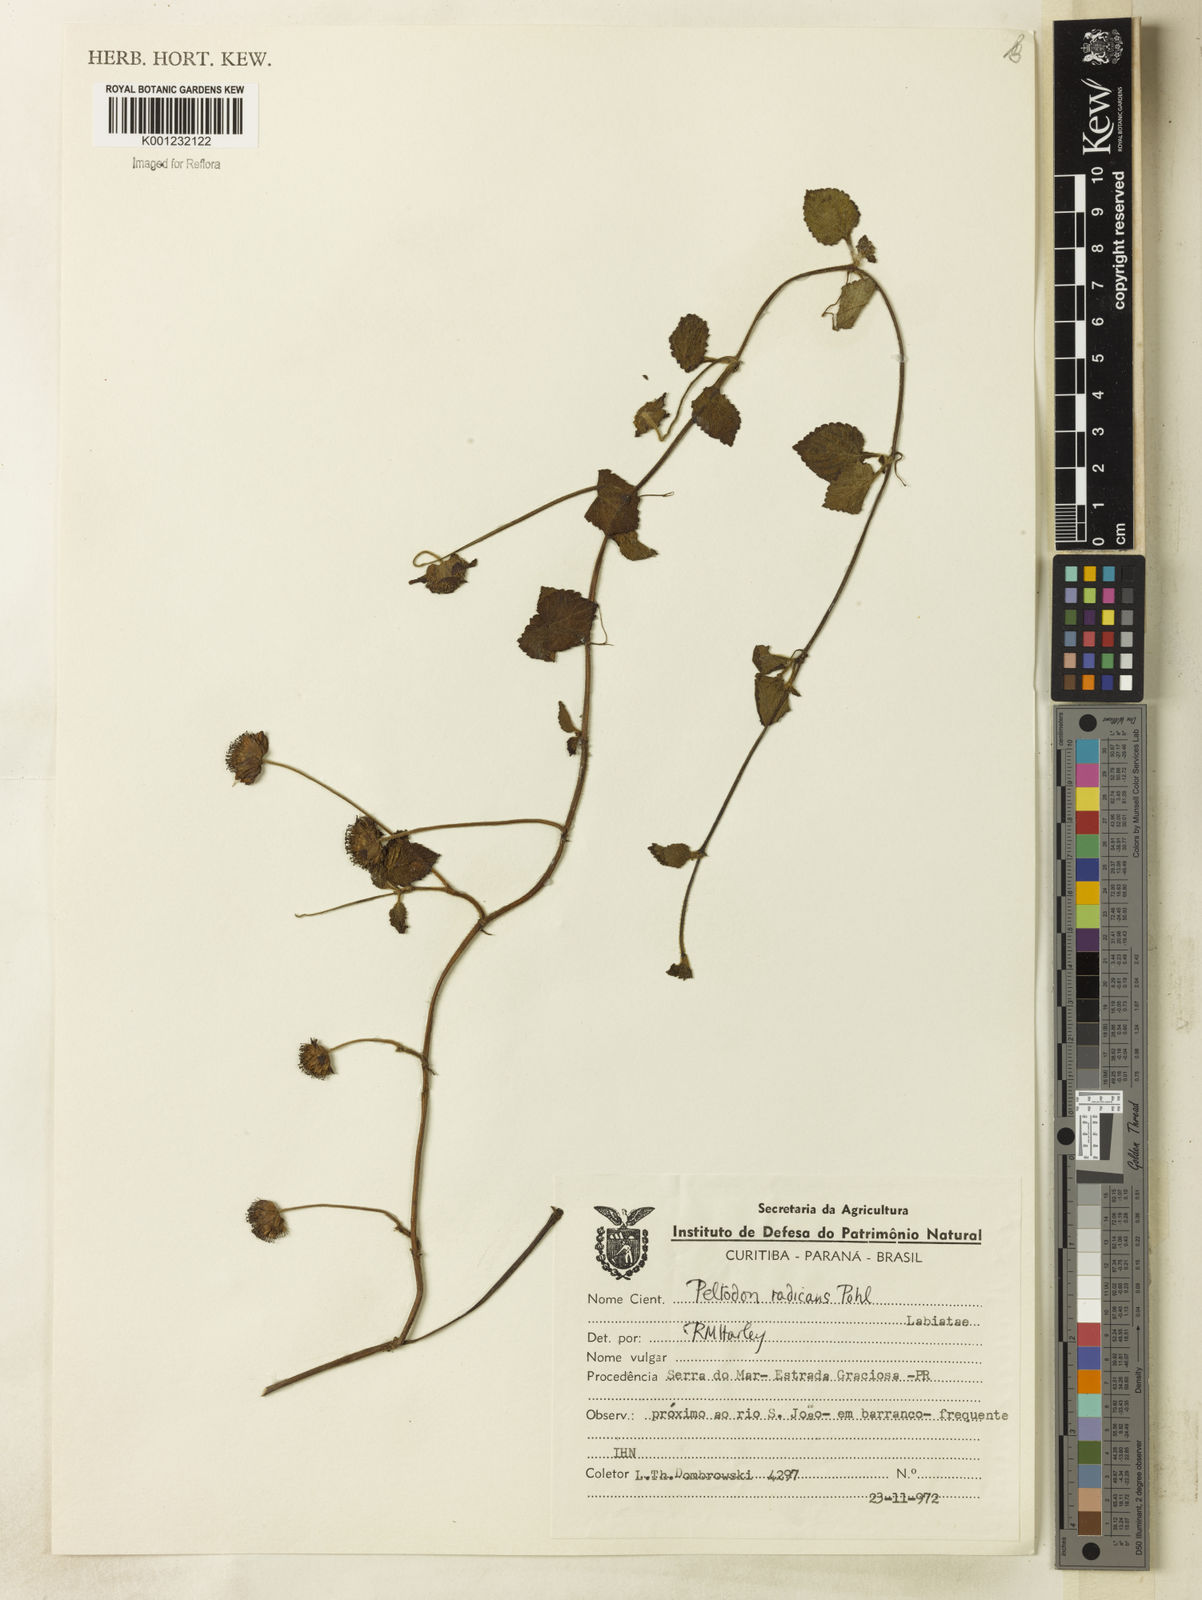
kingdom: Plantae
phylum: Tracheophyta
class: Magnoliopsida
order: Lamiales
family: Lamiaceae
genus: Hyptis
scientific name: Hyptis radicans
